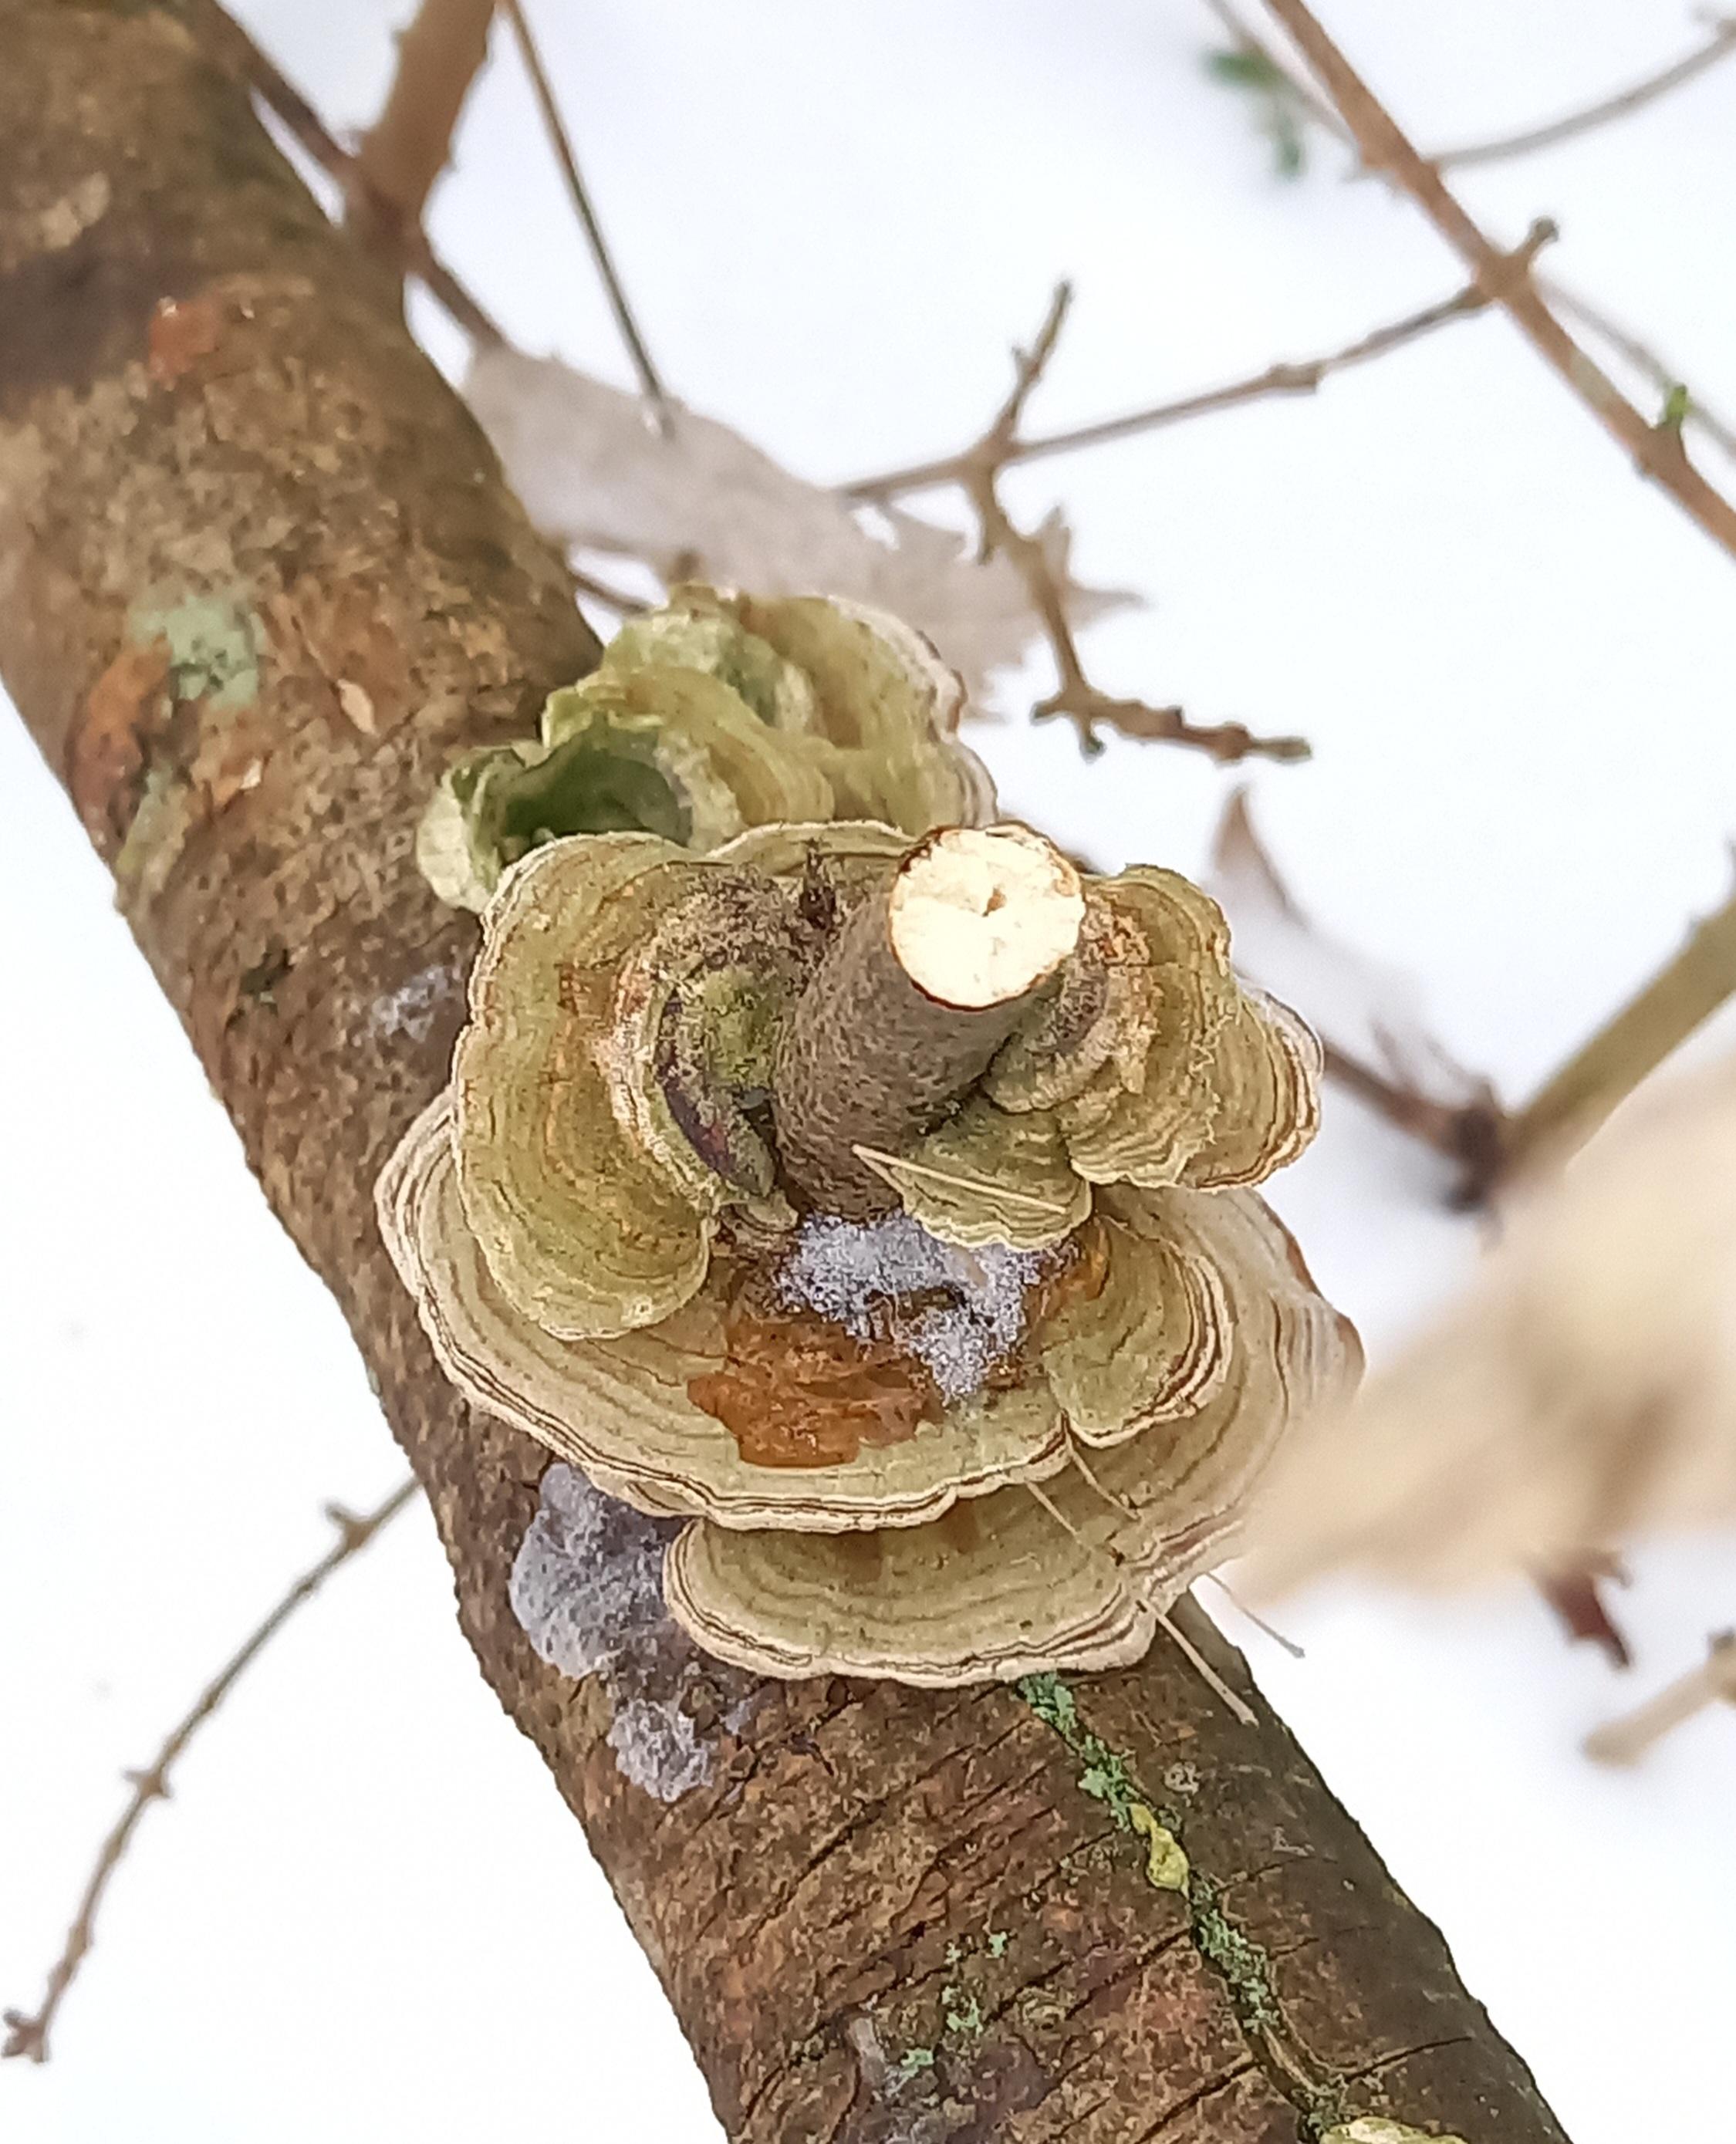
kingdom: Fungi
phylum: Basidiomycota
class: Agaricomycetes
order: Polyporales
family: Polyporaceae
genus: Trametes
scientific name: Trametes ochracea
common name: bæltet læderporesvamp
